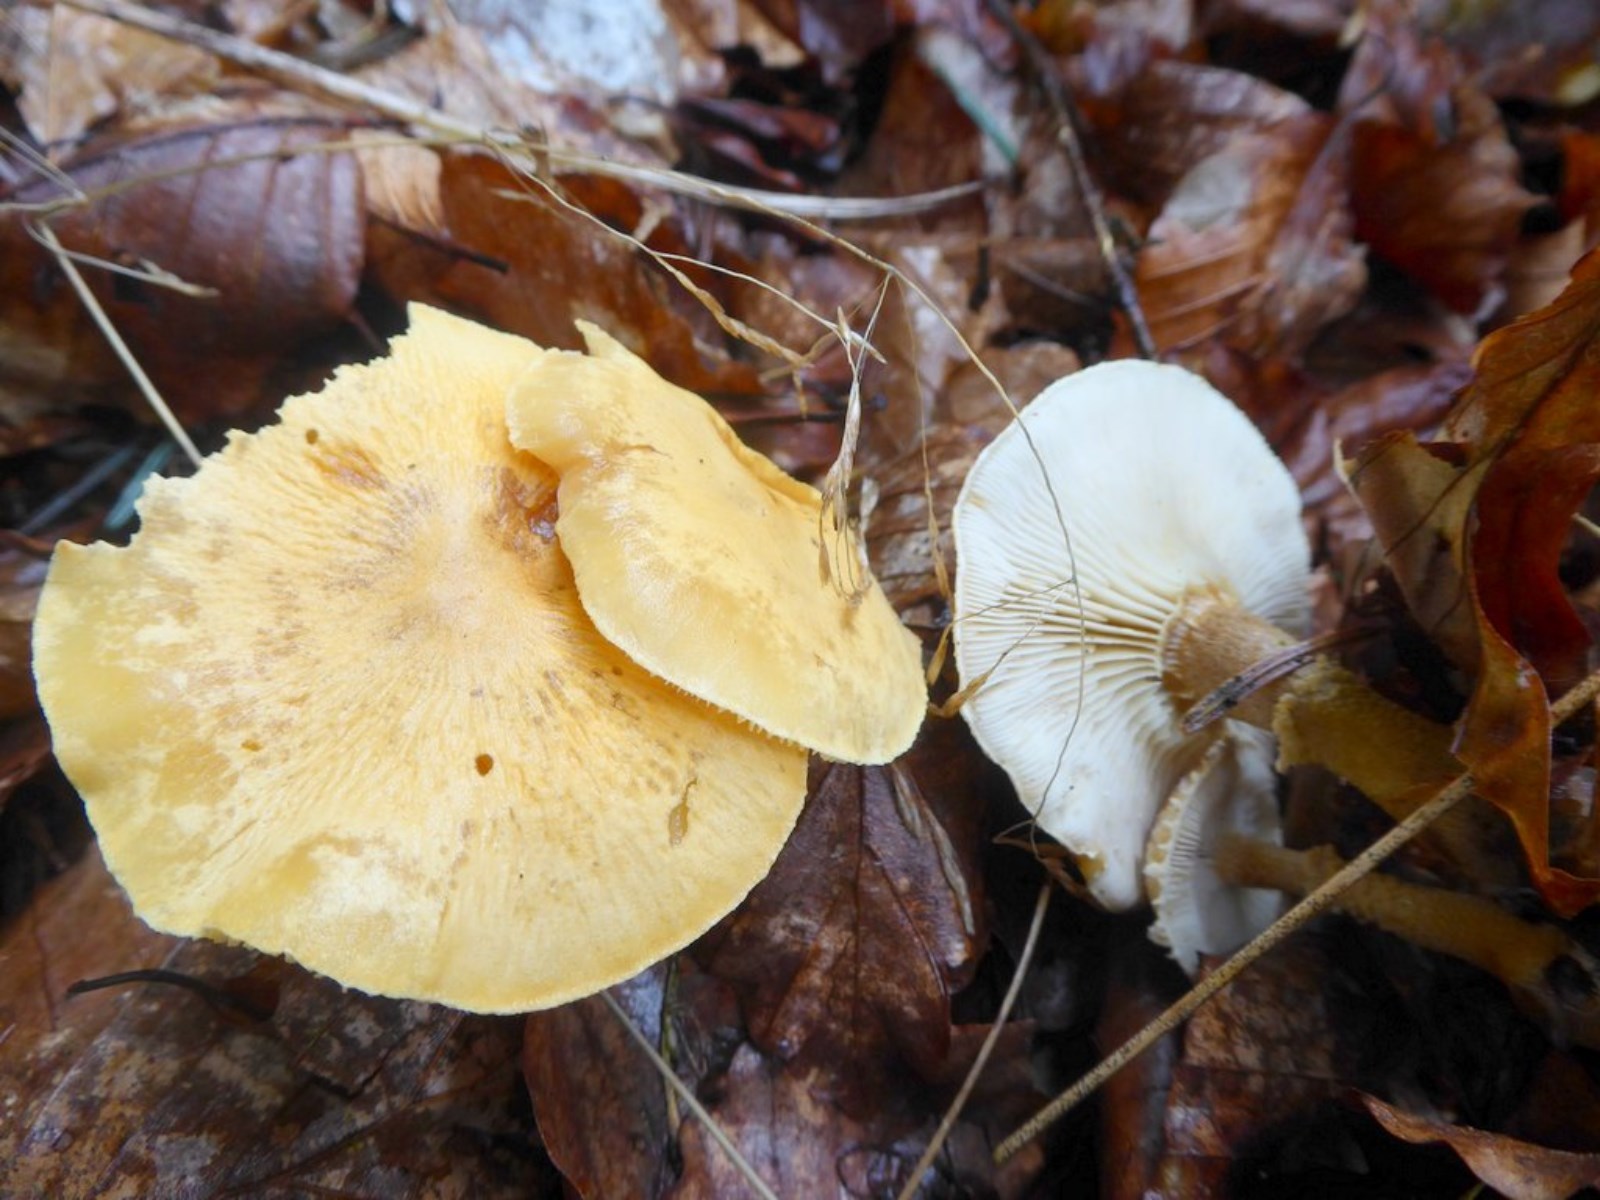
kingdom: Fungi
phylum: Basidiomycota
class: Agaricomycetes
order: Agaricales
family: Tricholomataceae
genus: Cystoderma
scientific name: Cystoderma amianthinum
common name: okkergul grynhat
